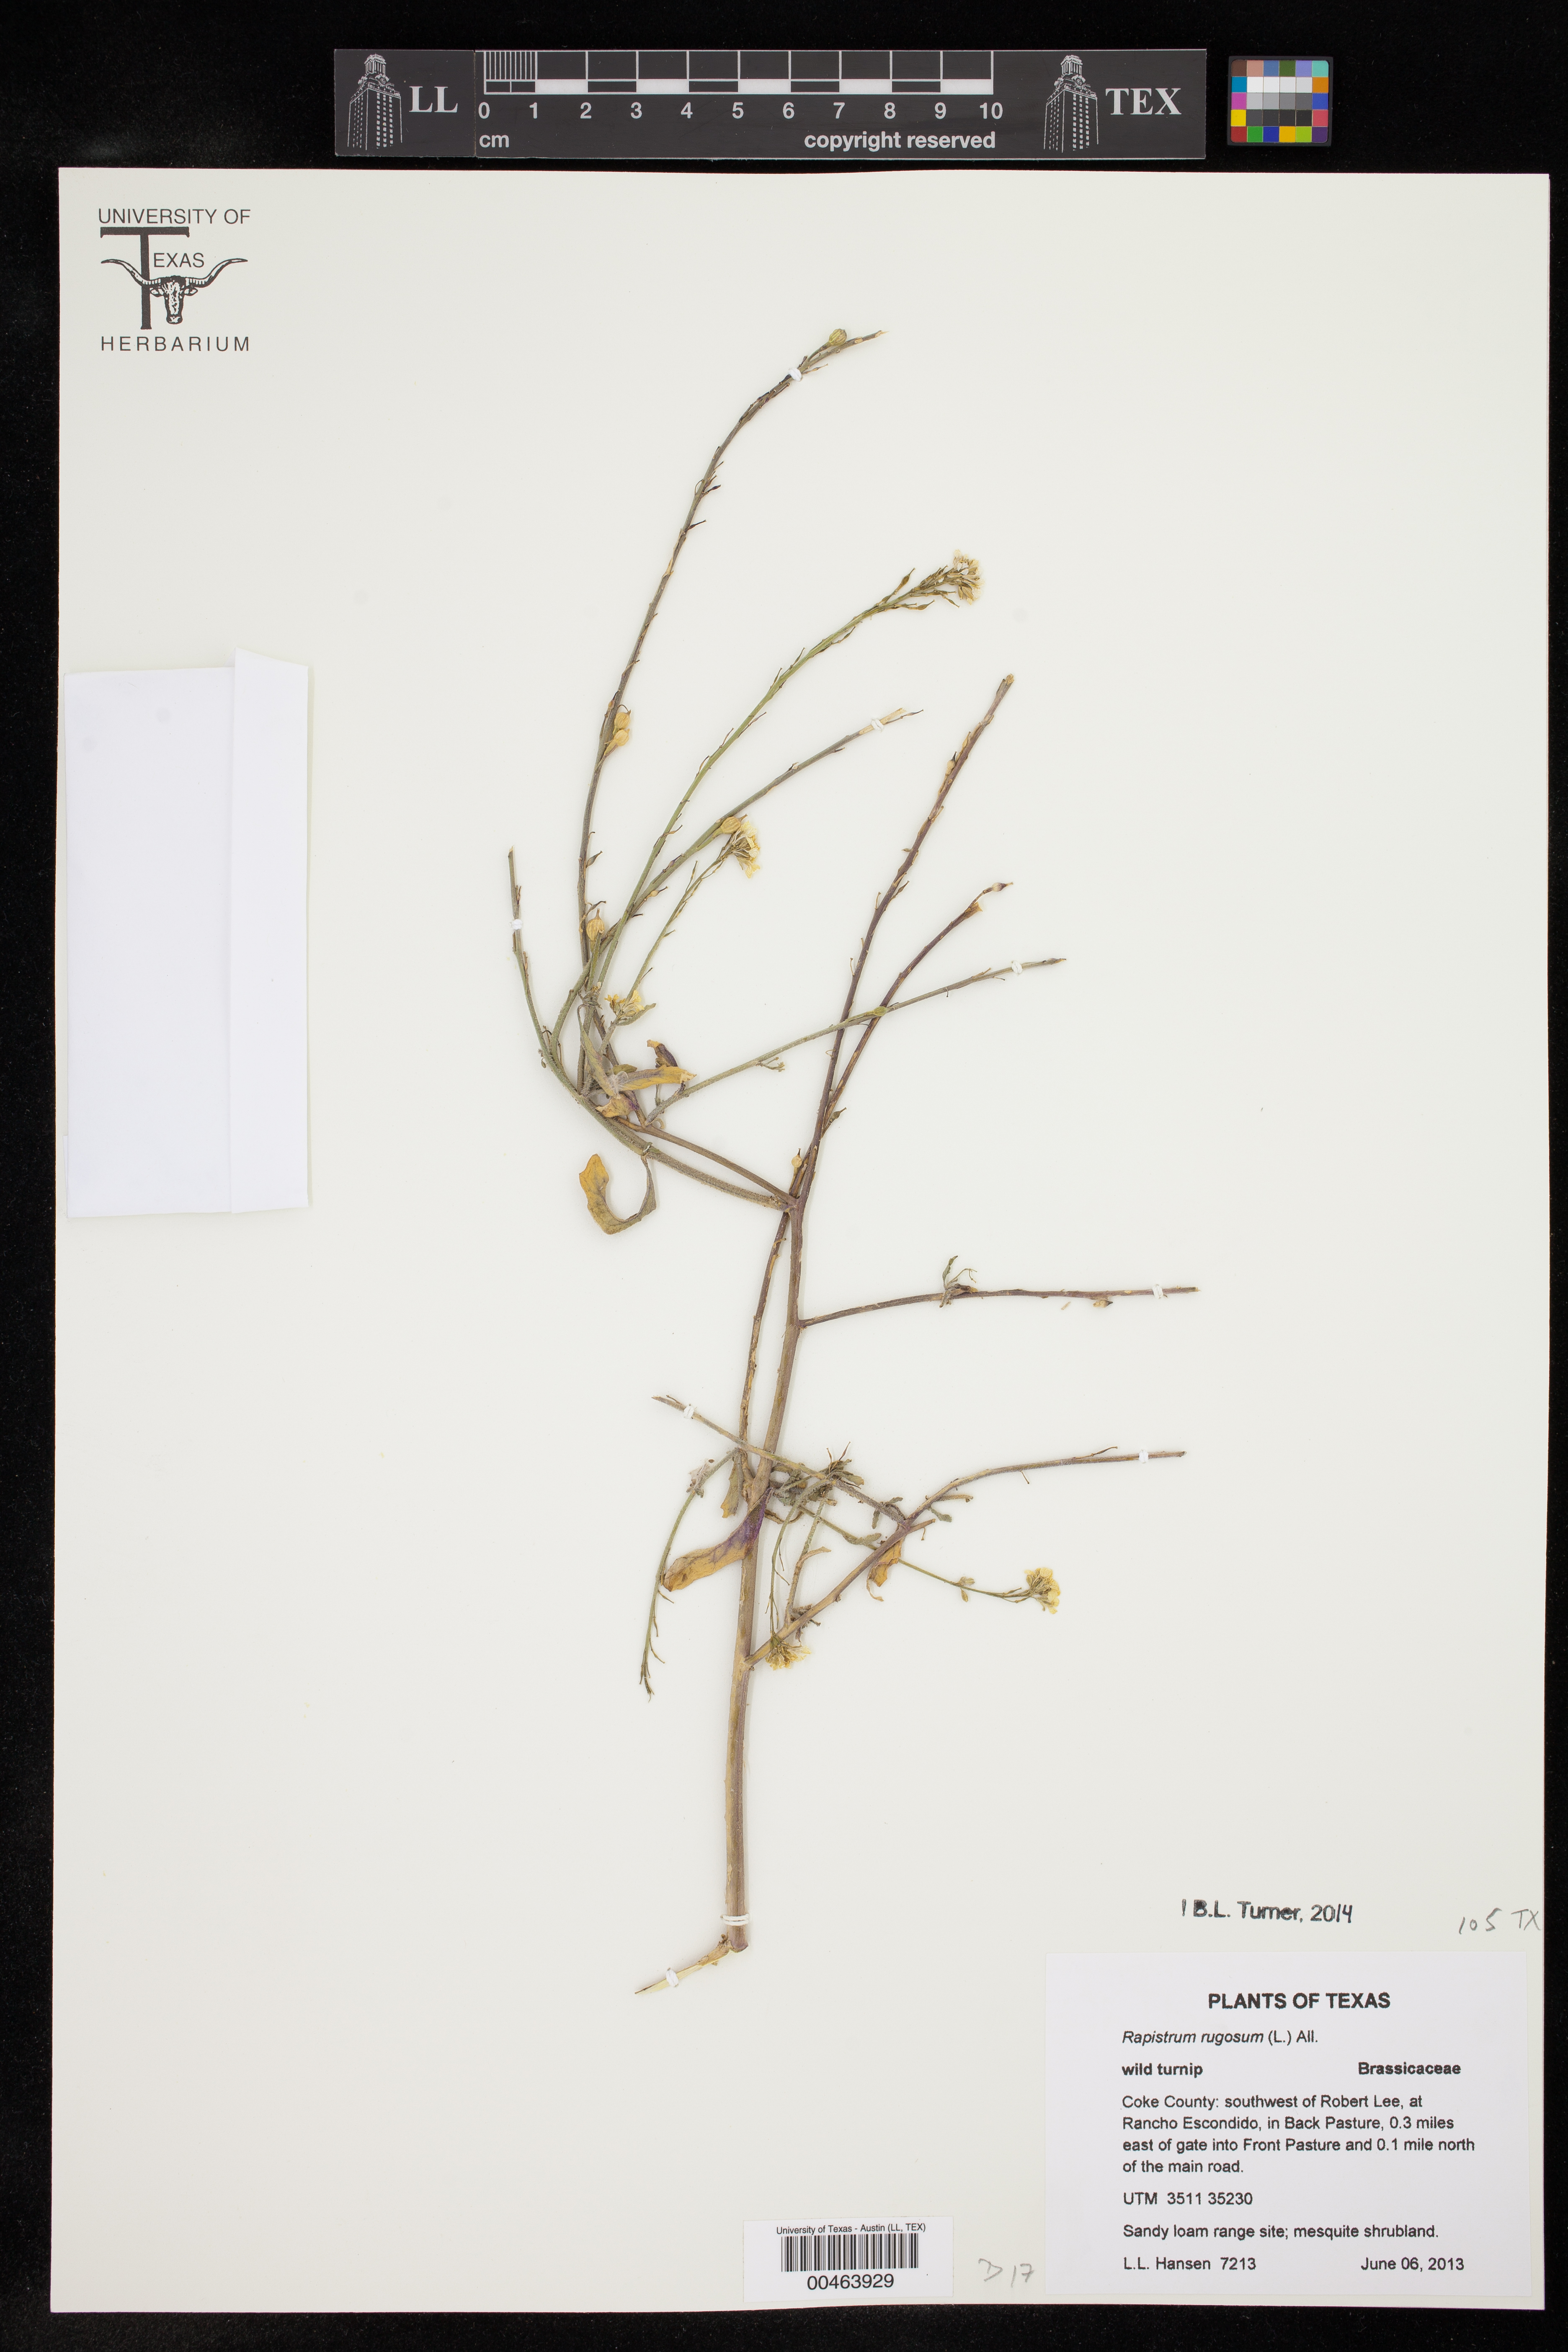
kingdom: Plantae
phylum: Tracheophyta
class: Magnoliopsida
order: Brassicales
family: Brassicaceae
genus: Rapistrum
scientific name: Rapistrum rugosum
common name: Annual bastardcabbage
